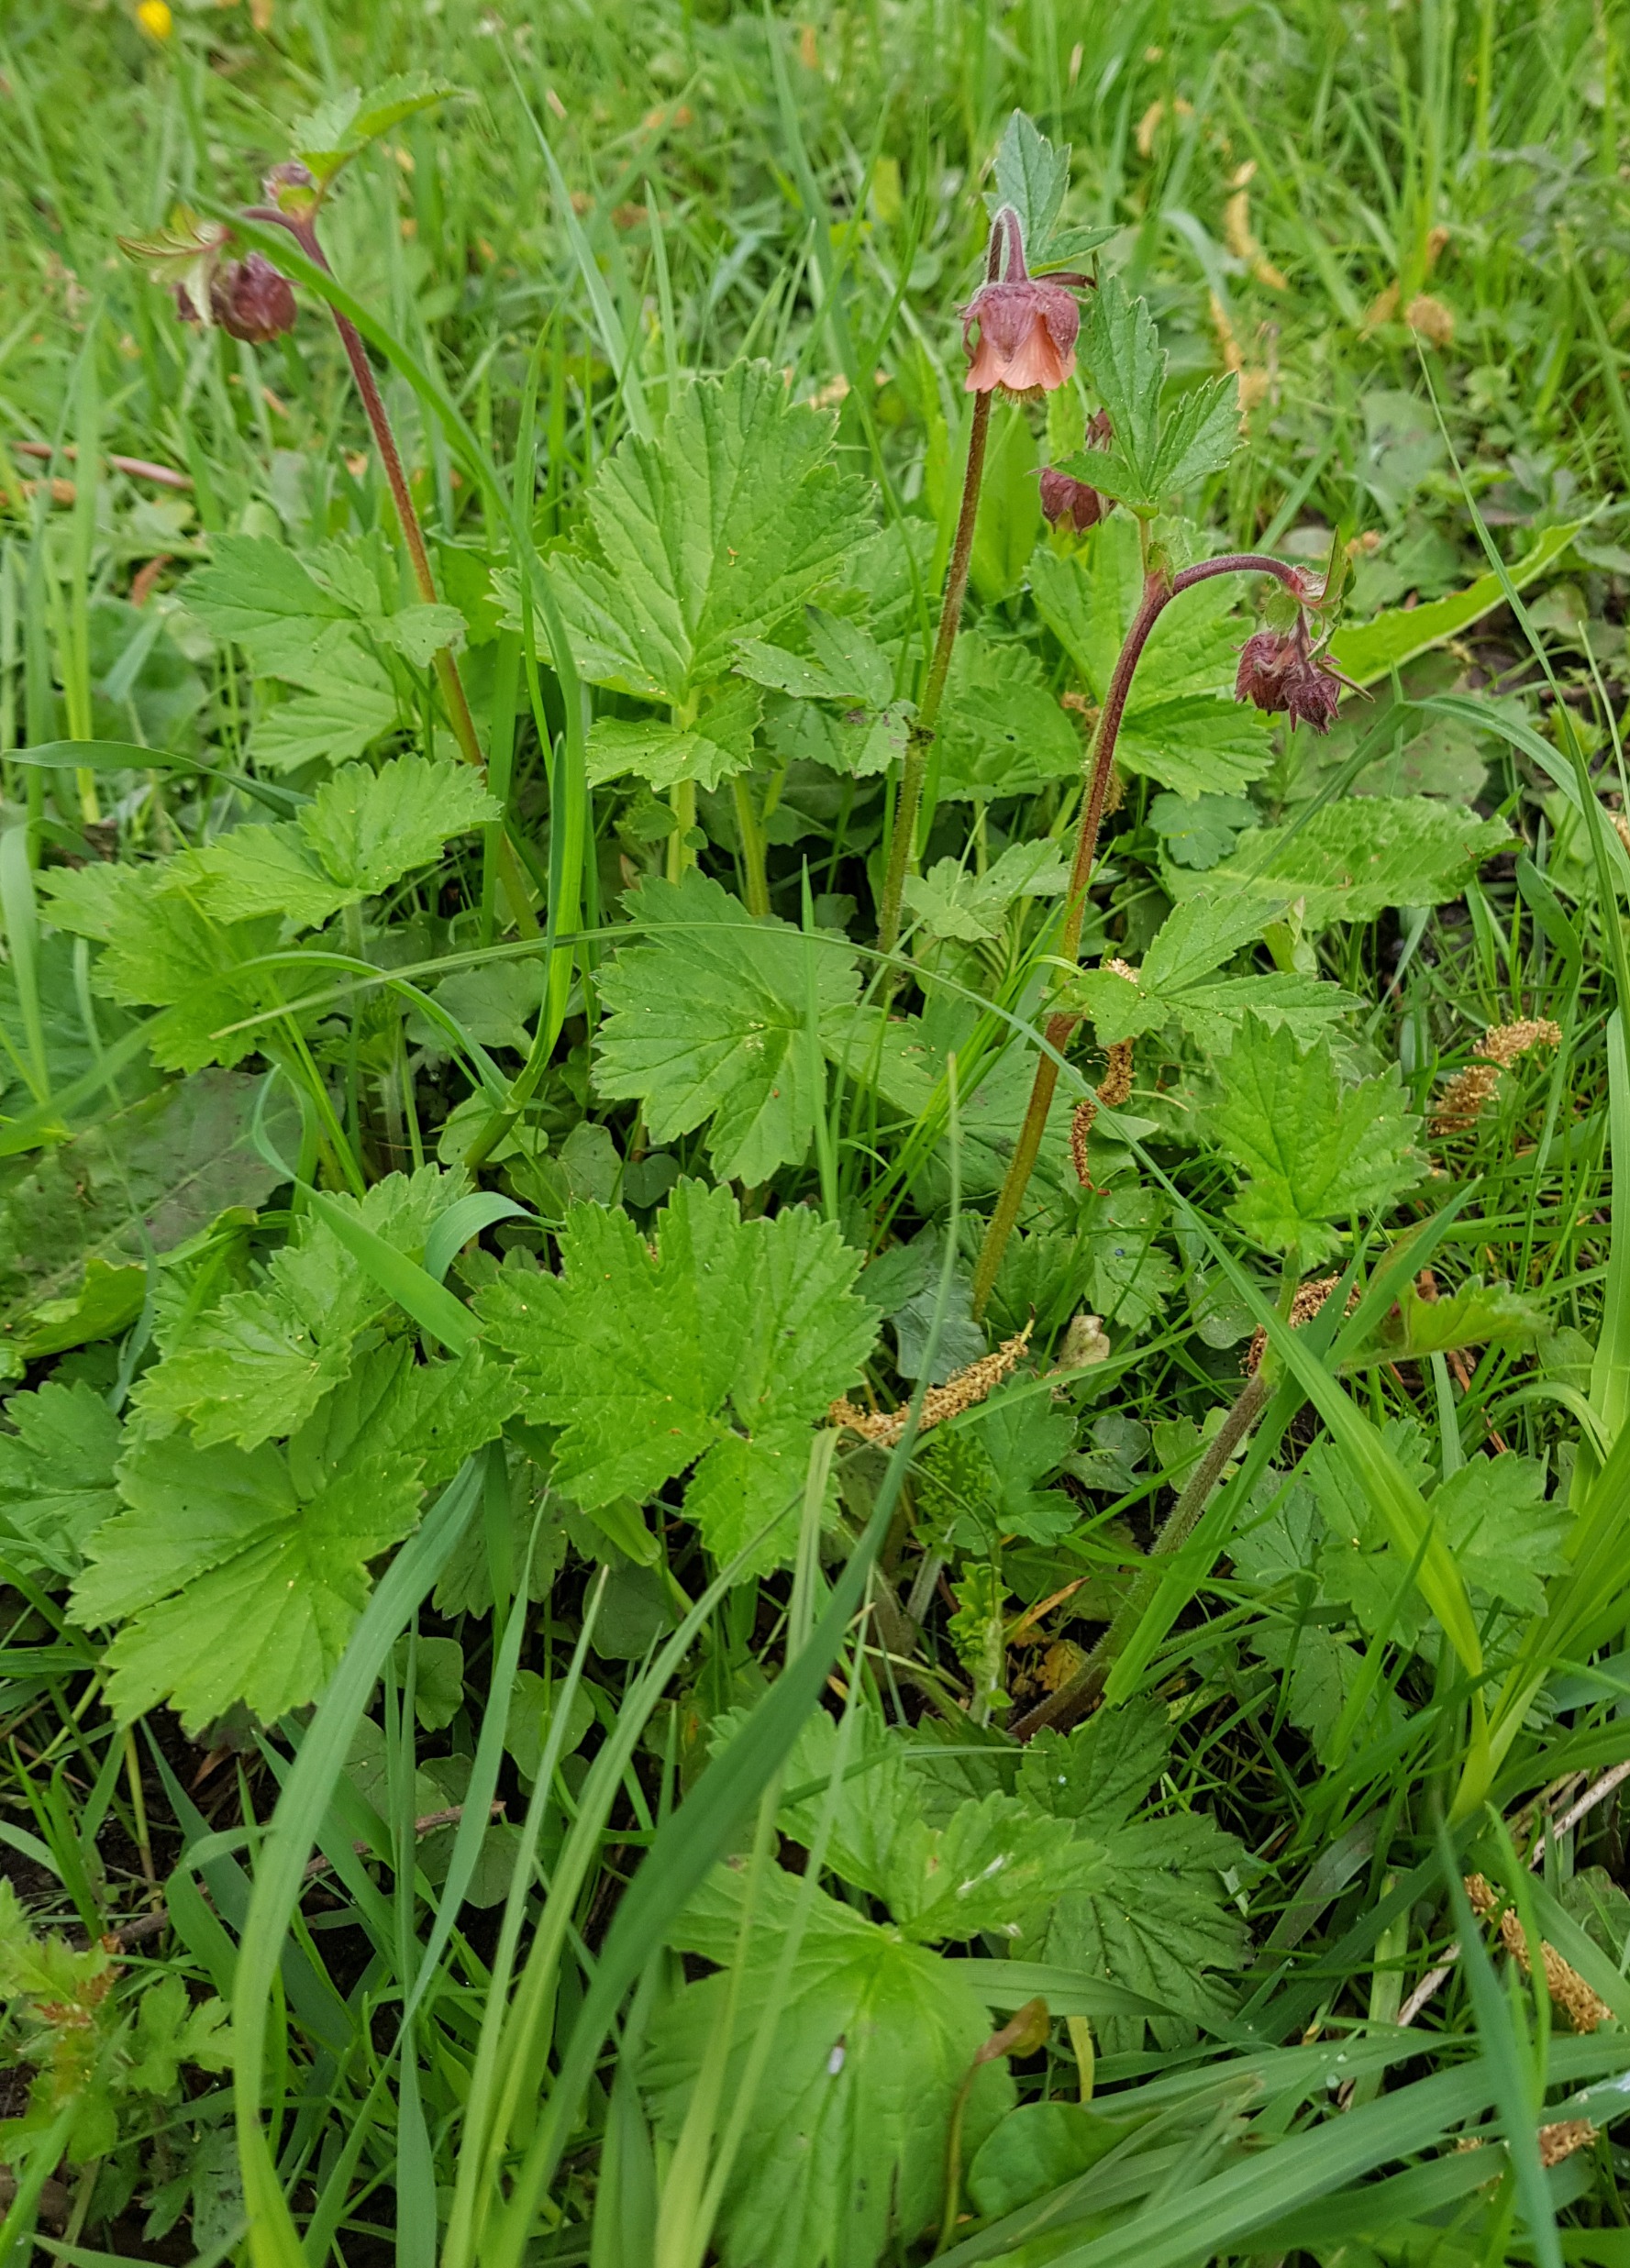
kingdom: Plantae
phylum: Tracheophyta
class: Magnoliopsida
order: Rosales
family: Rosaceae
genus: Geum
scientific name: Geum rivale
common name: Eng-nellikerod
